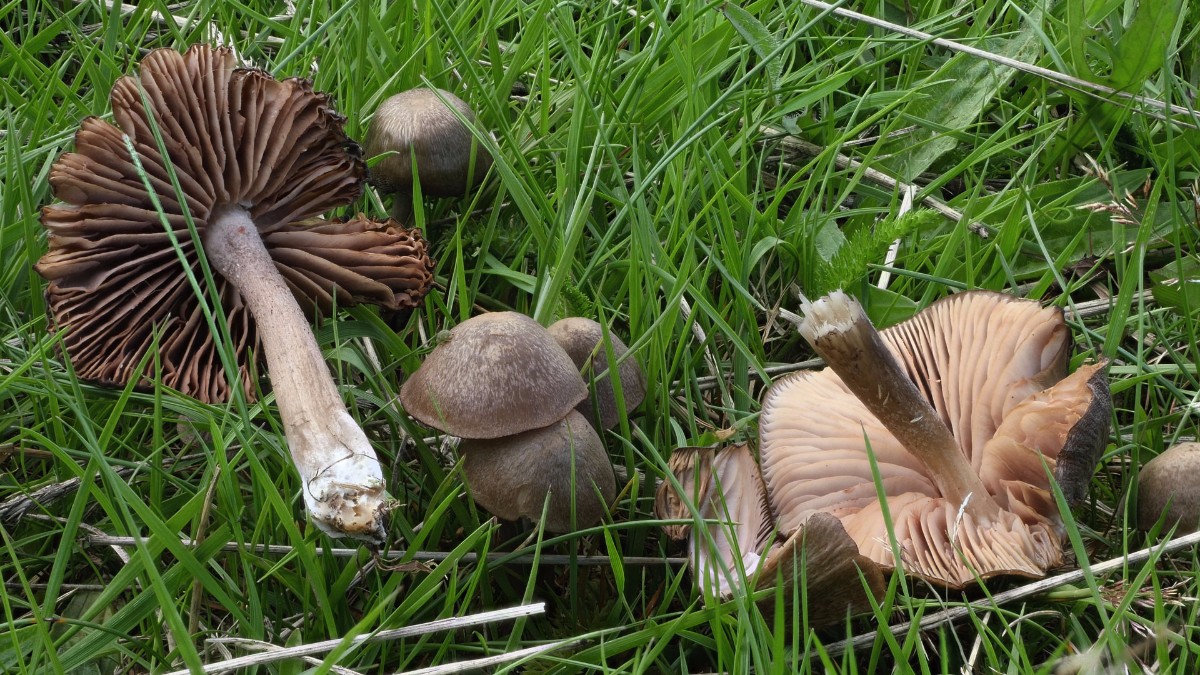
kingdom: Fungi
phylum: Basidiomycota
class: Agaricomycetes
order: Agaricales
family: Entolomataceae
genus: Entoloma
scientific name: Entoloma porphyrophaeum
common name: porfyrbrun rødblad
